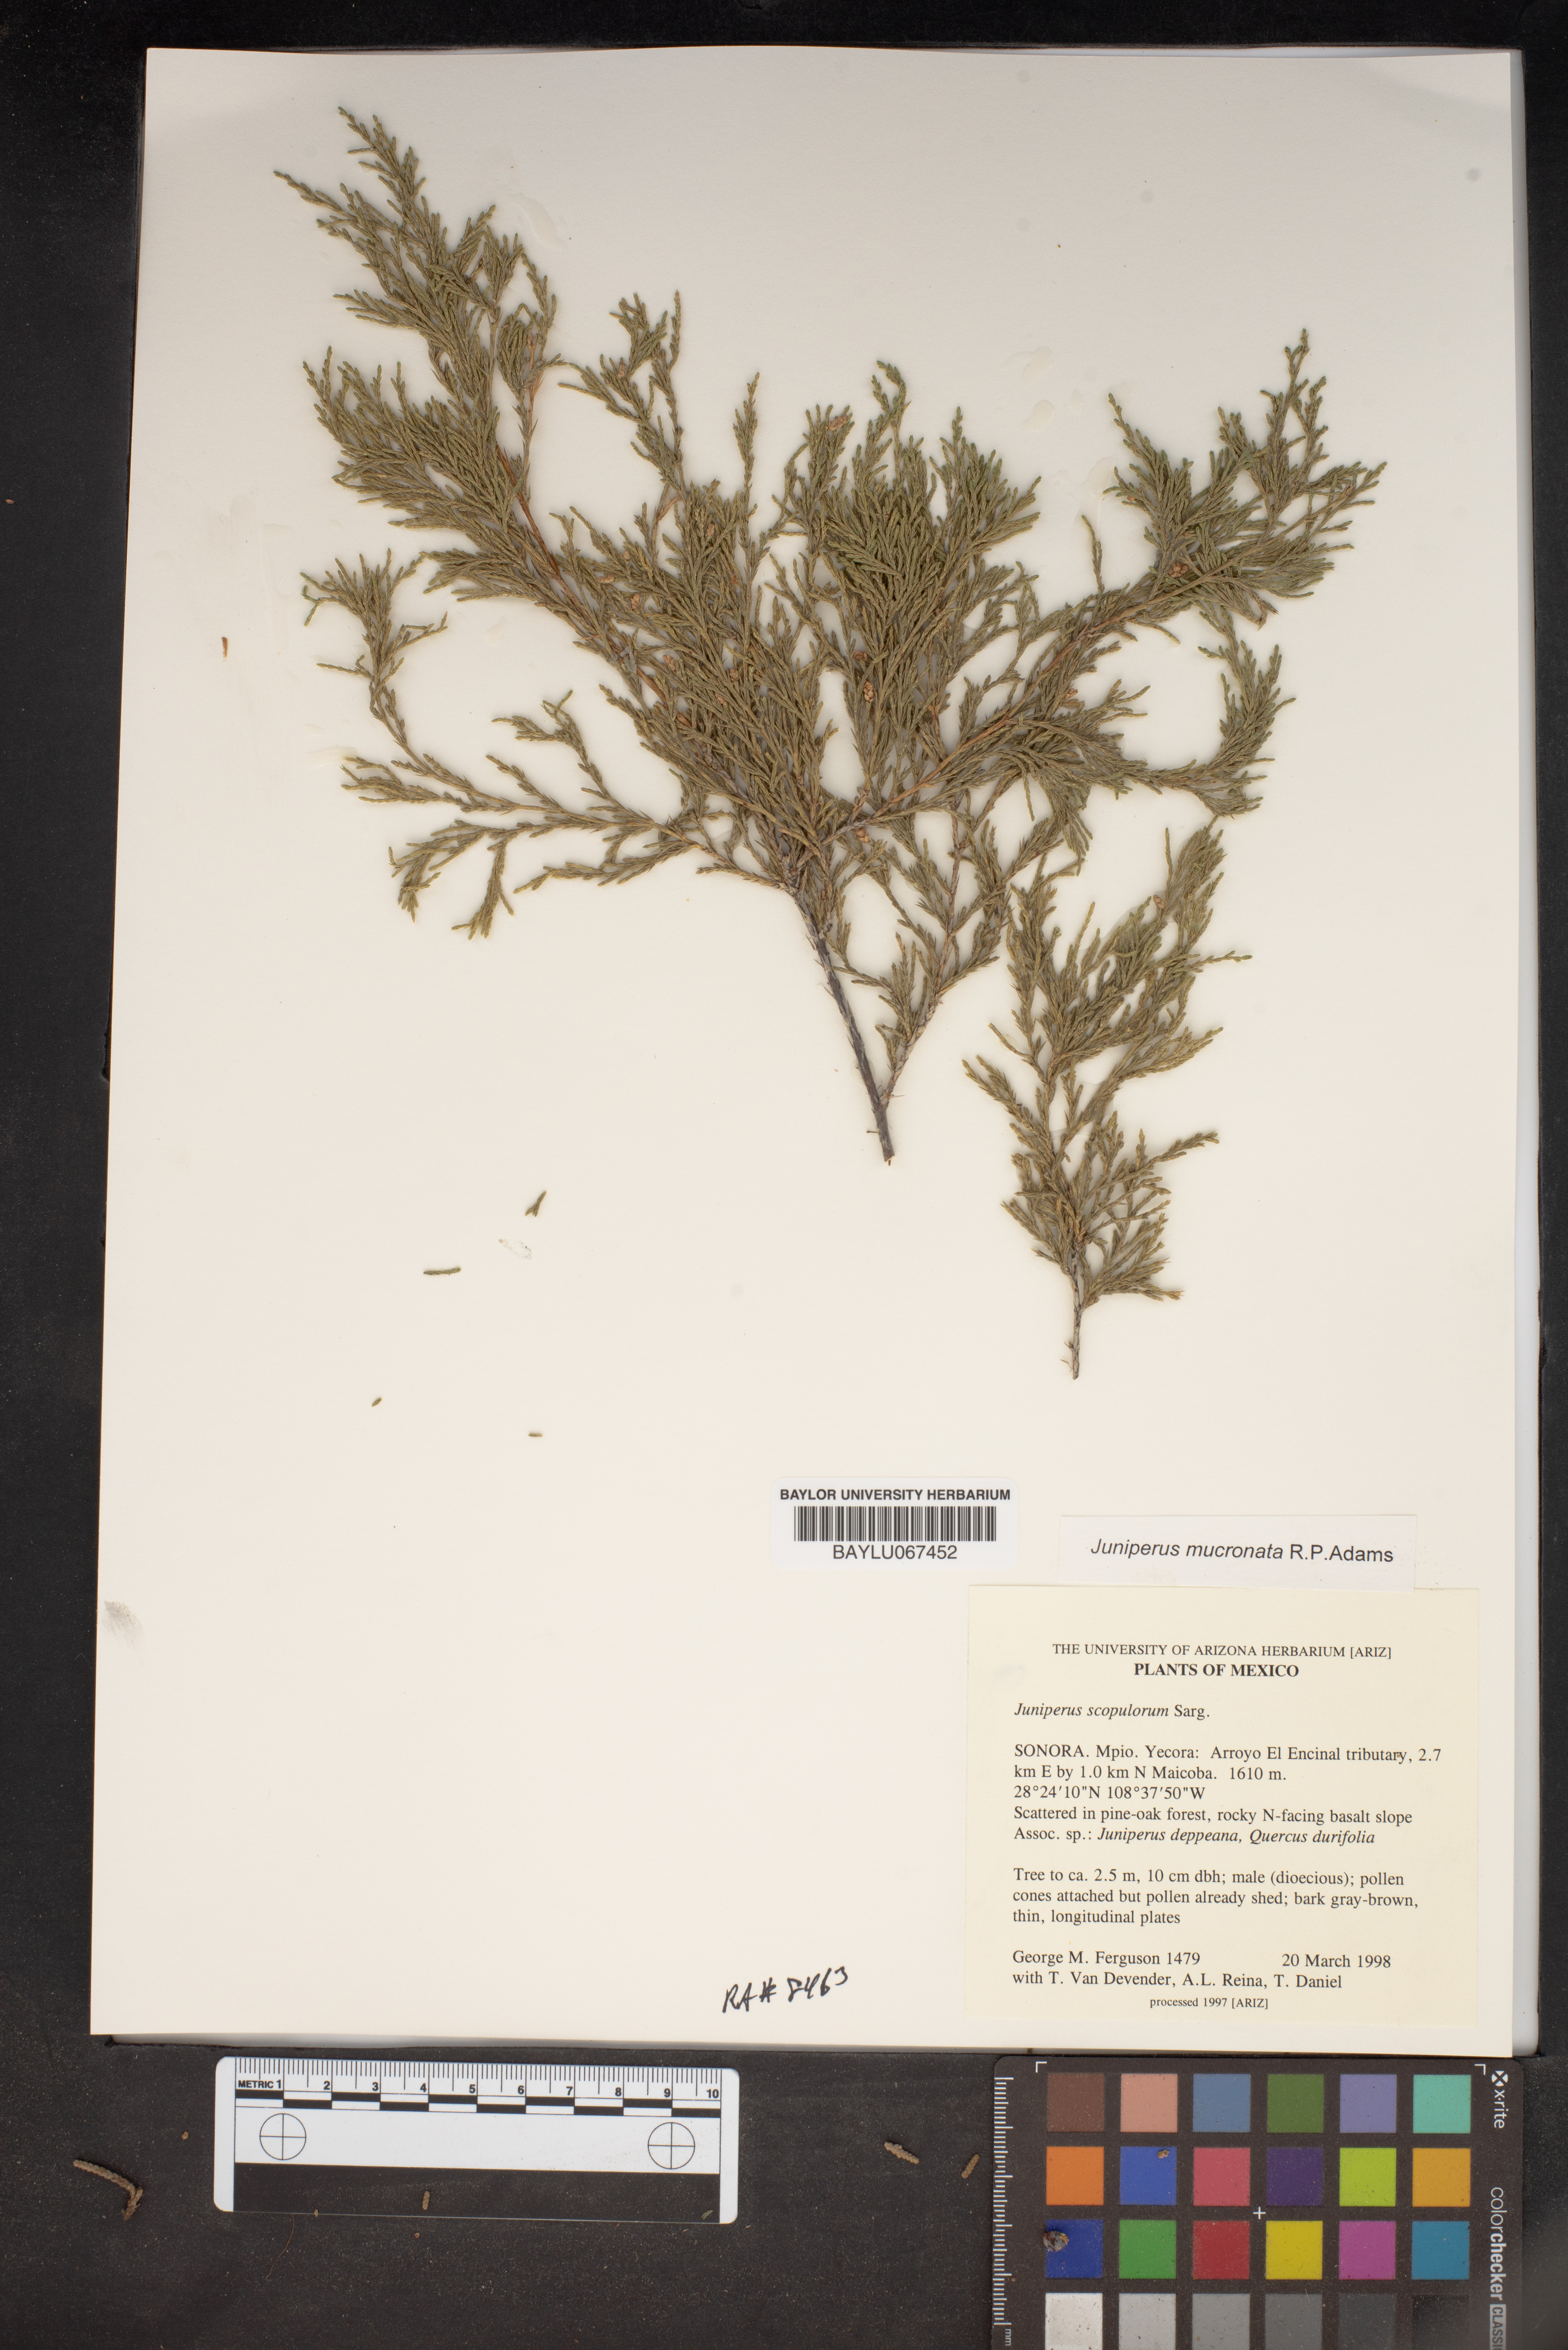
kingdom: Plantae
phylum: Tracheophyta
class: Pinopsida
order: Pinales
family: Cupressaceae
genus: Juniperus
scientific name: Juniperus scopulorum
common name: Rocky mountain juniper
